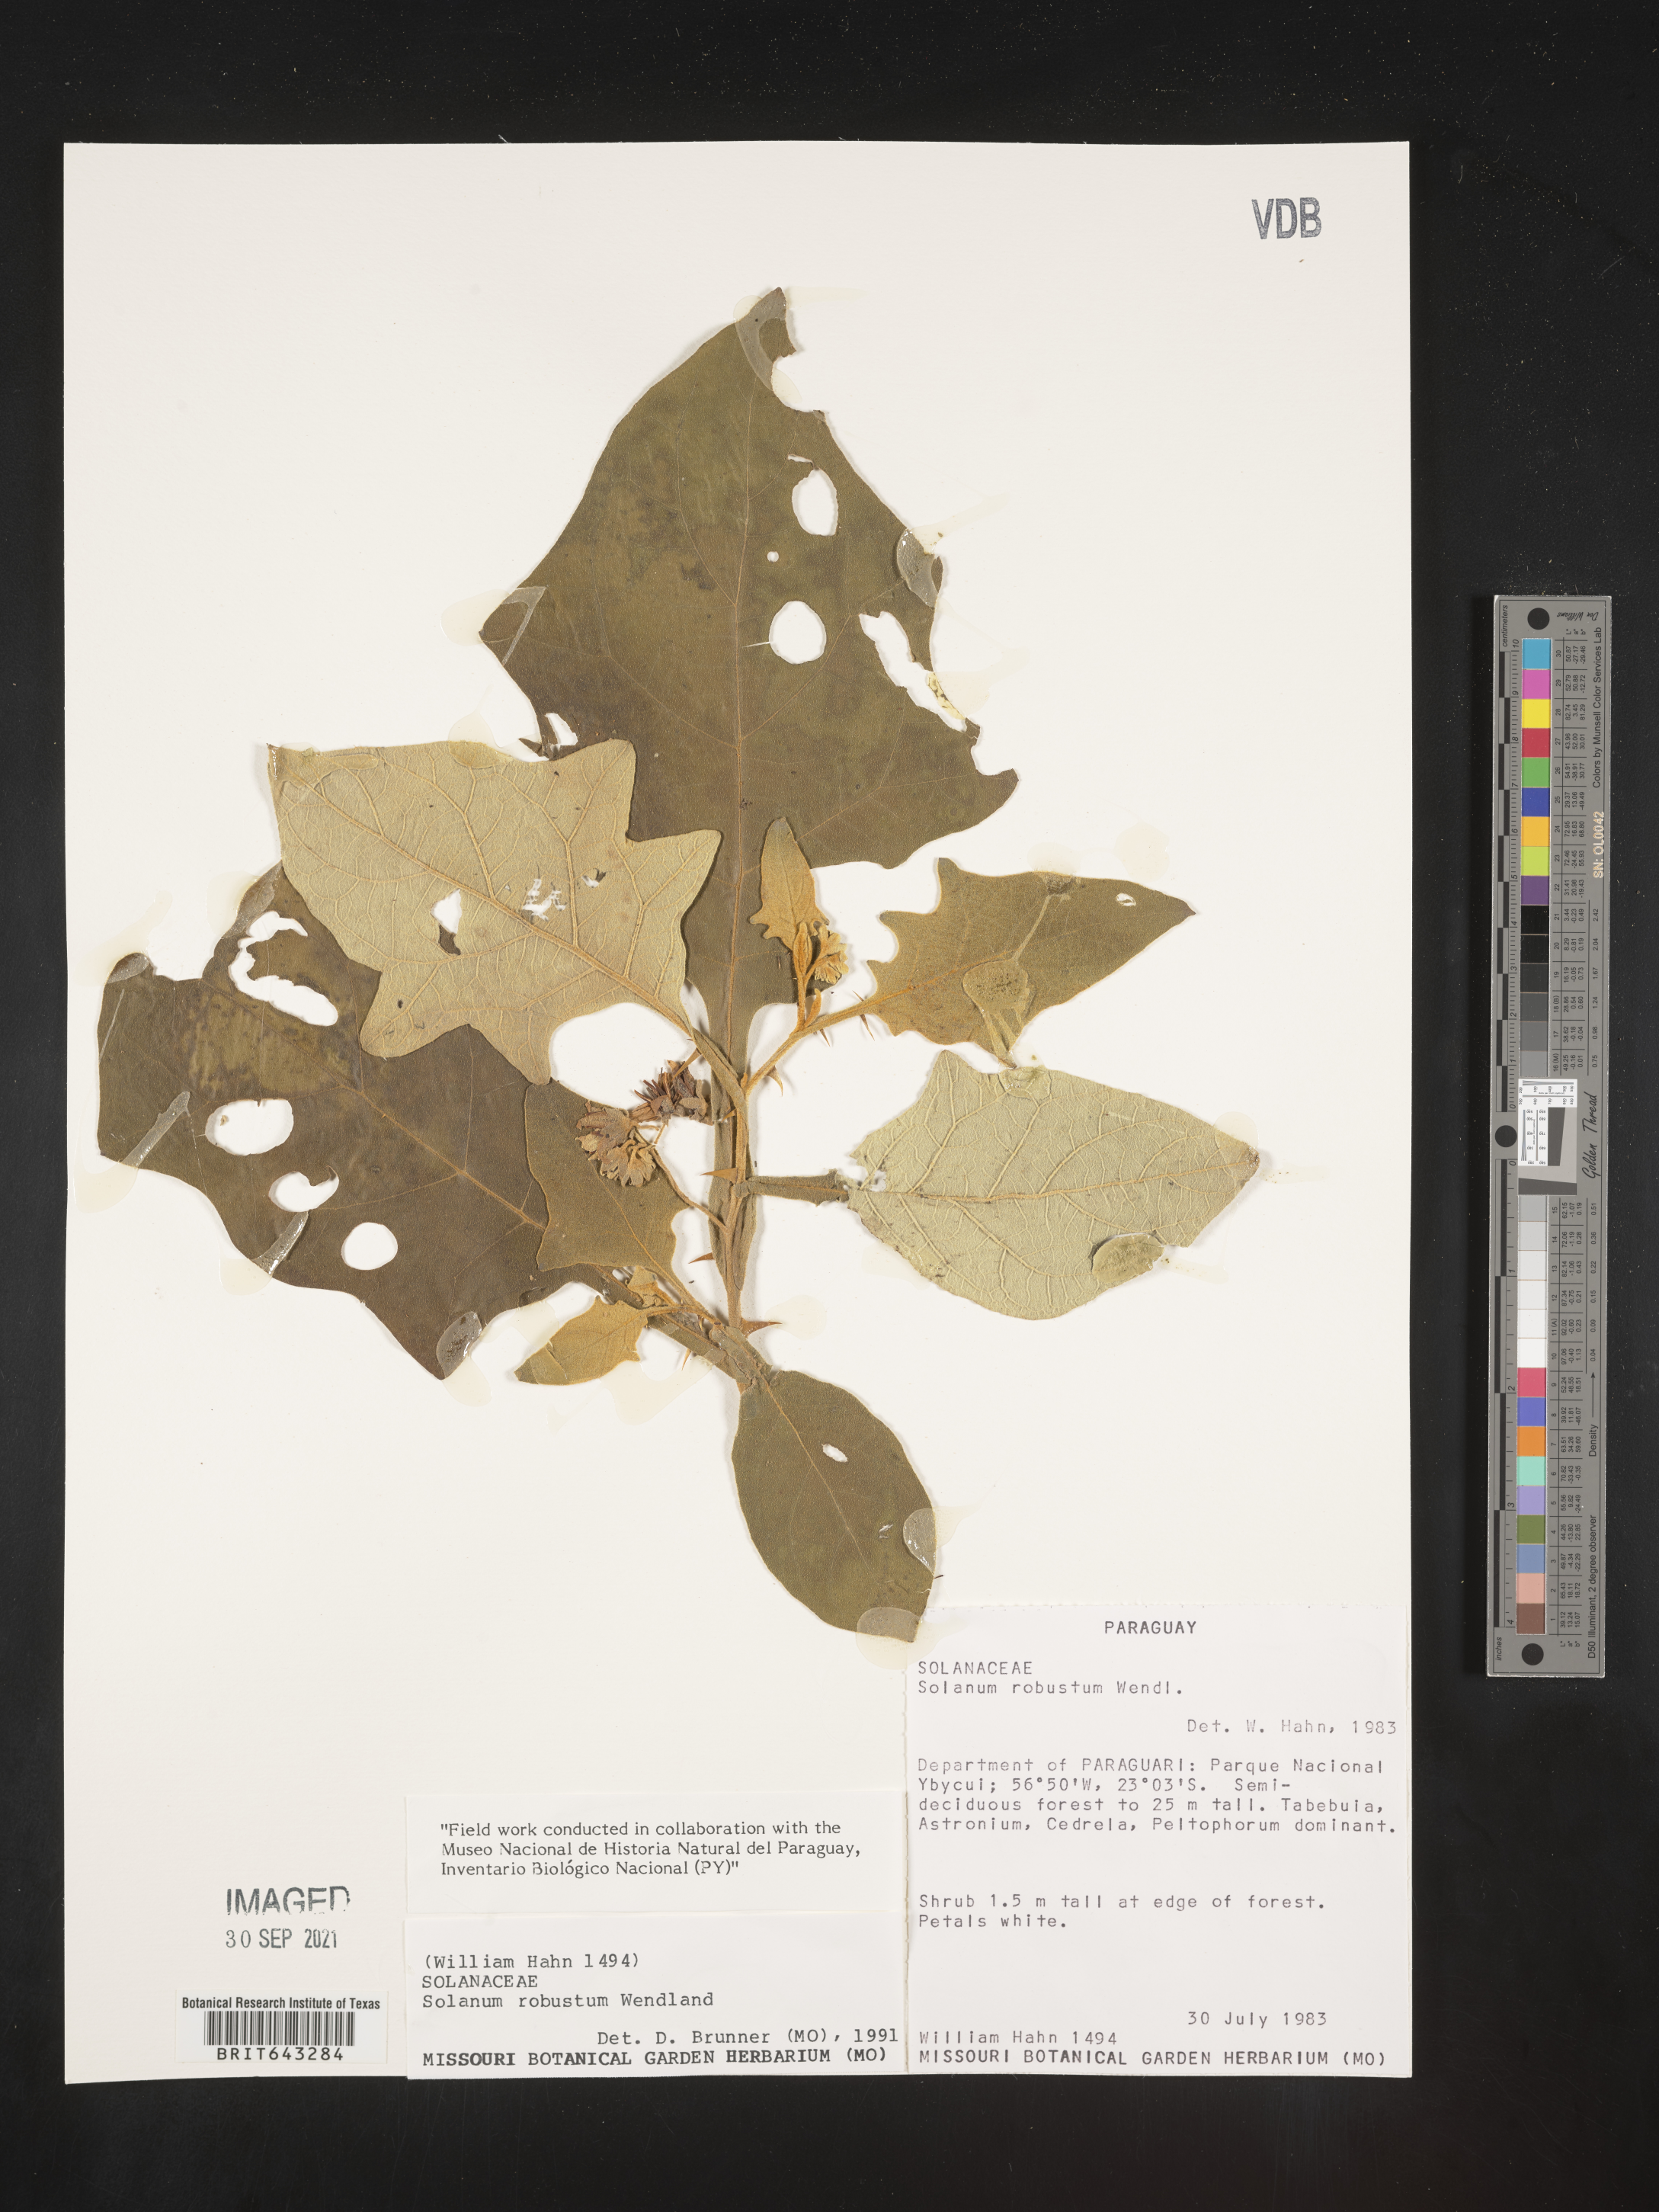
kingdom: Plantae
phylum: Tracheophyta
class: Magnoliopsida
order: Solanales
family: Solanaceae
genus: Solanum
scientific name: Solanum
